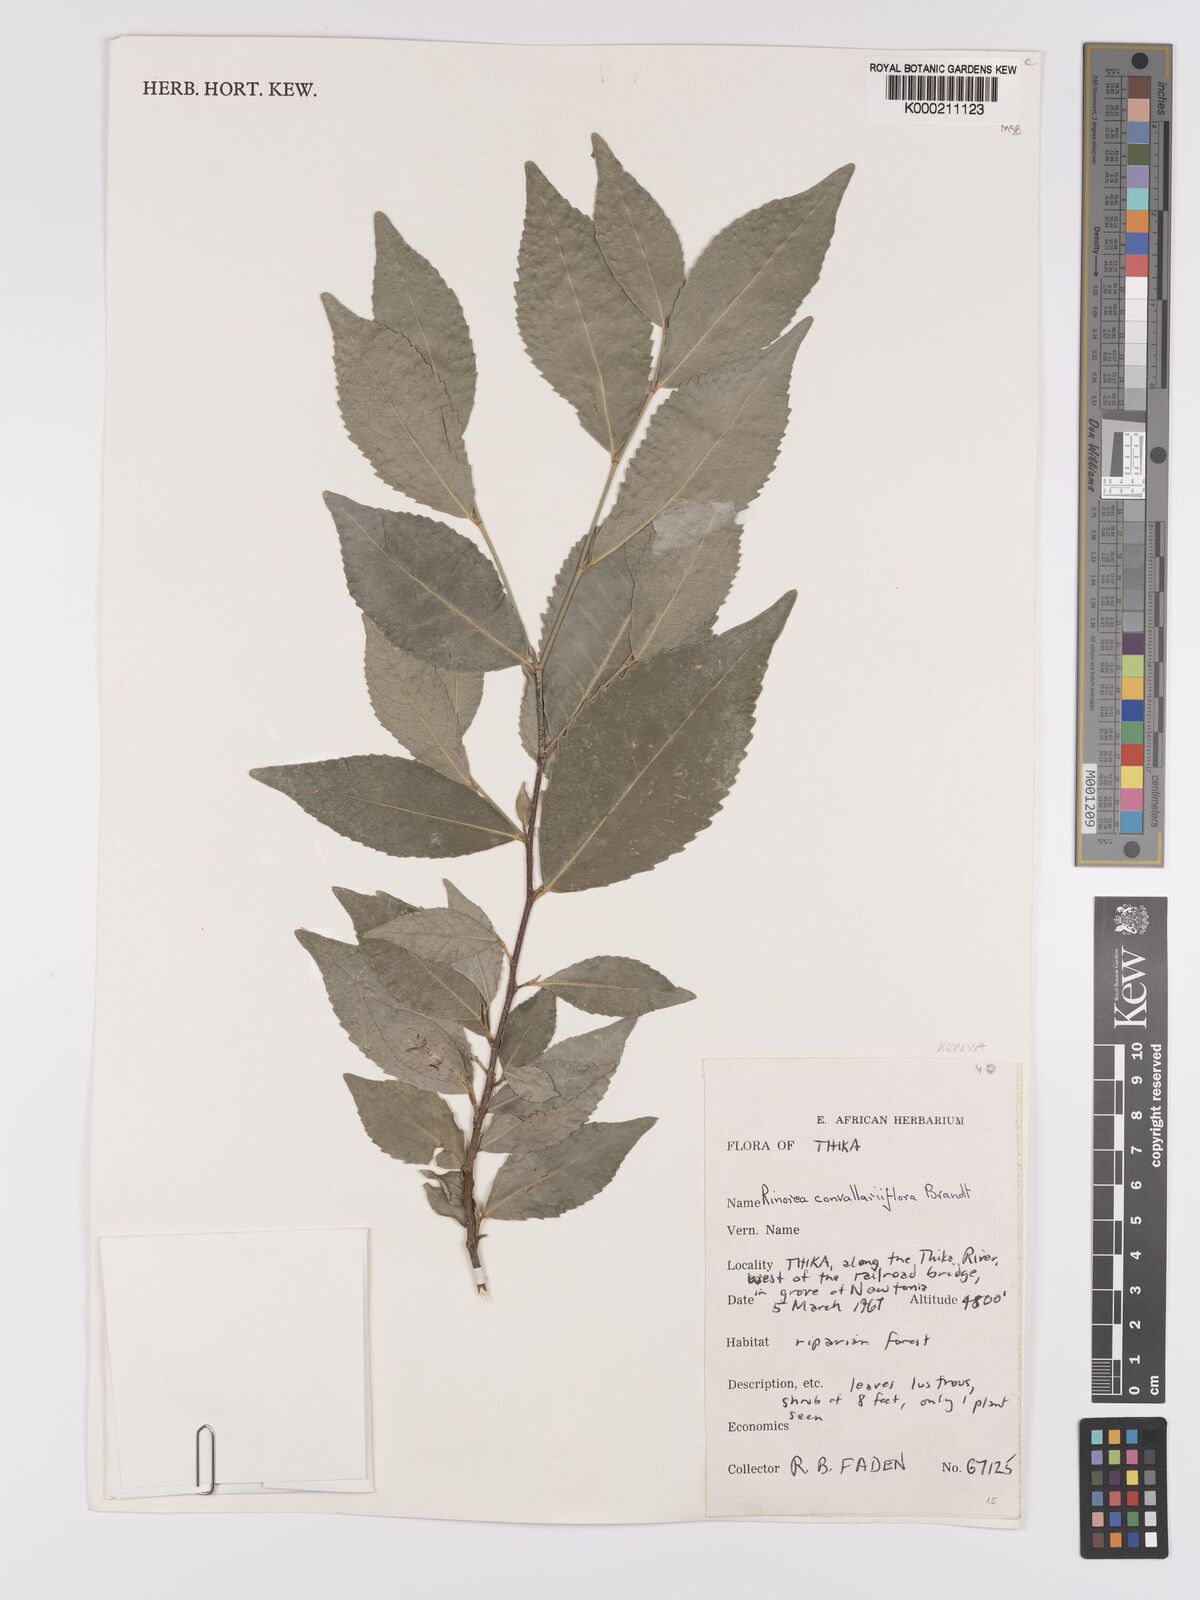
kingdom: Plantae
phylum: Tracheophyta
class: Magnoliopsida
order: Malpighiales
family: Violaceae
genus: Rinorea
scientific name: Rinorea convallarioides
